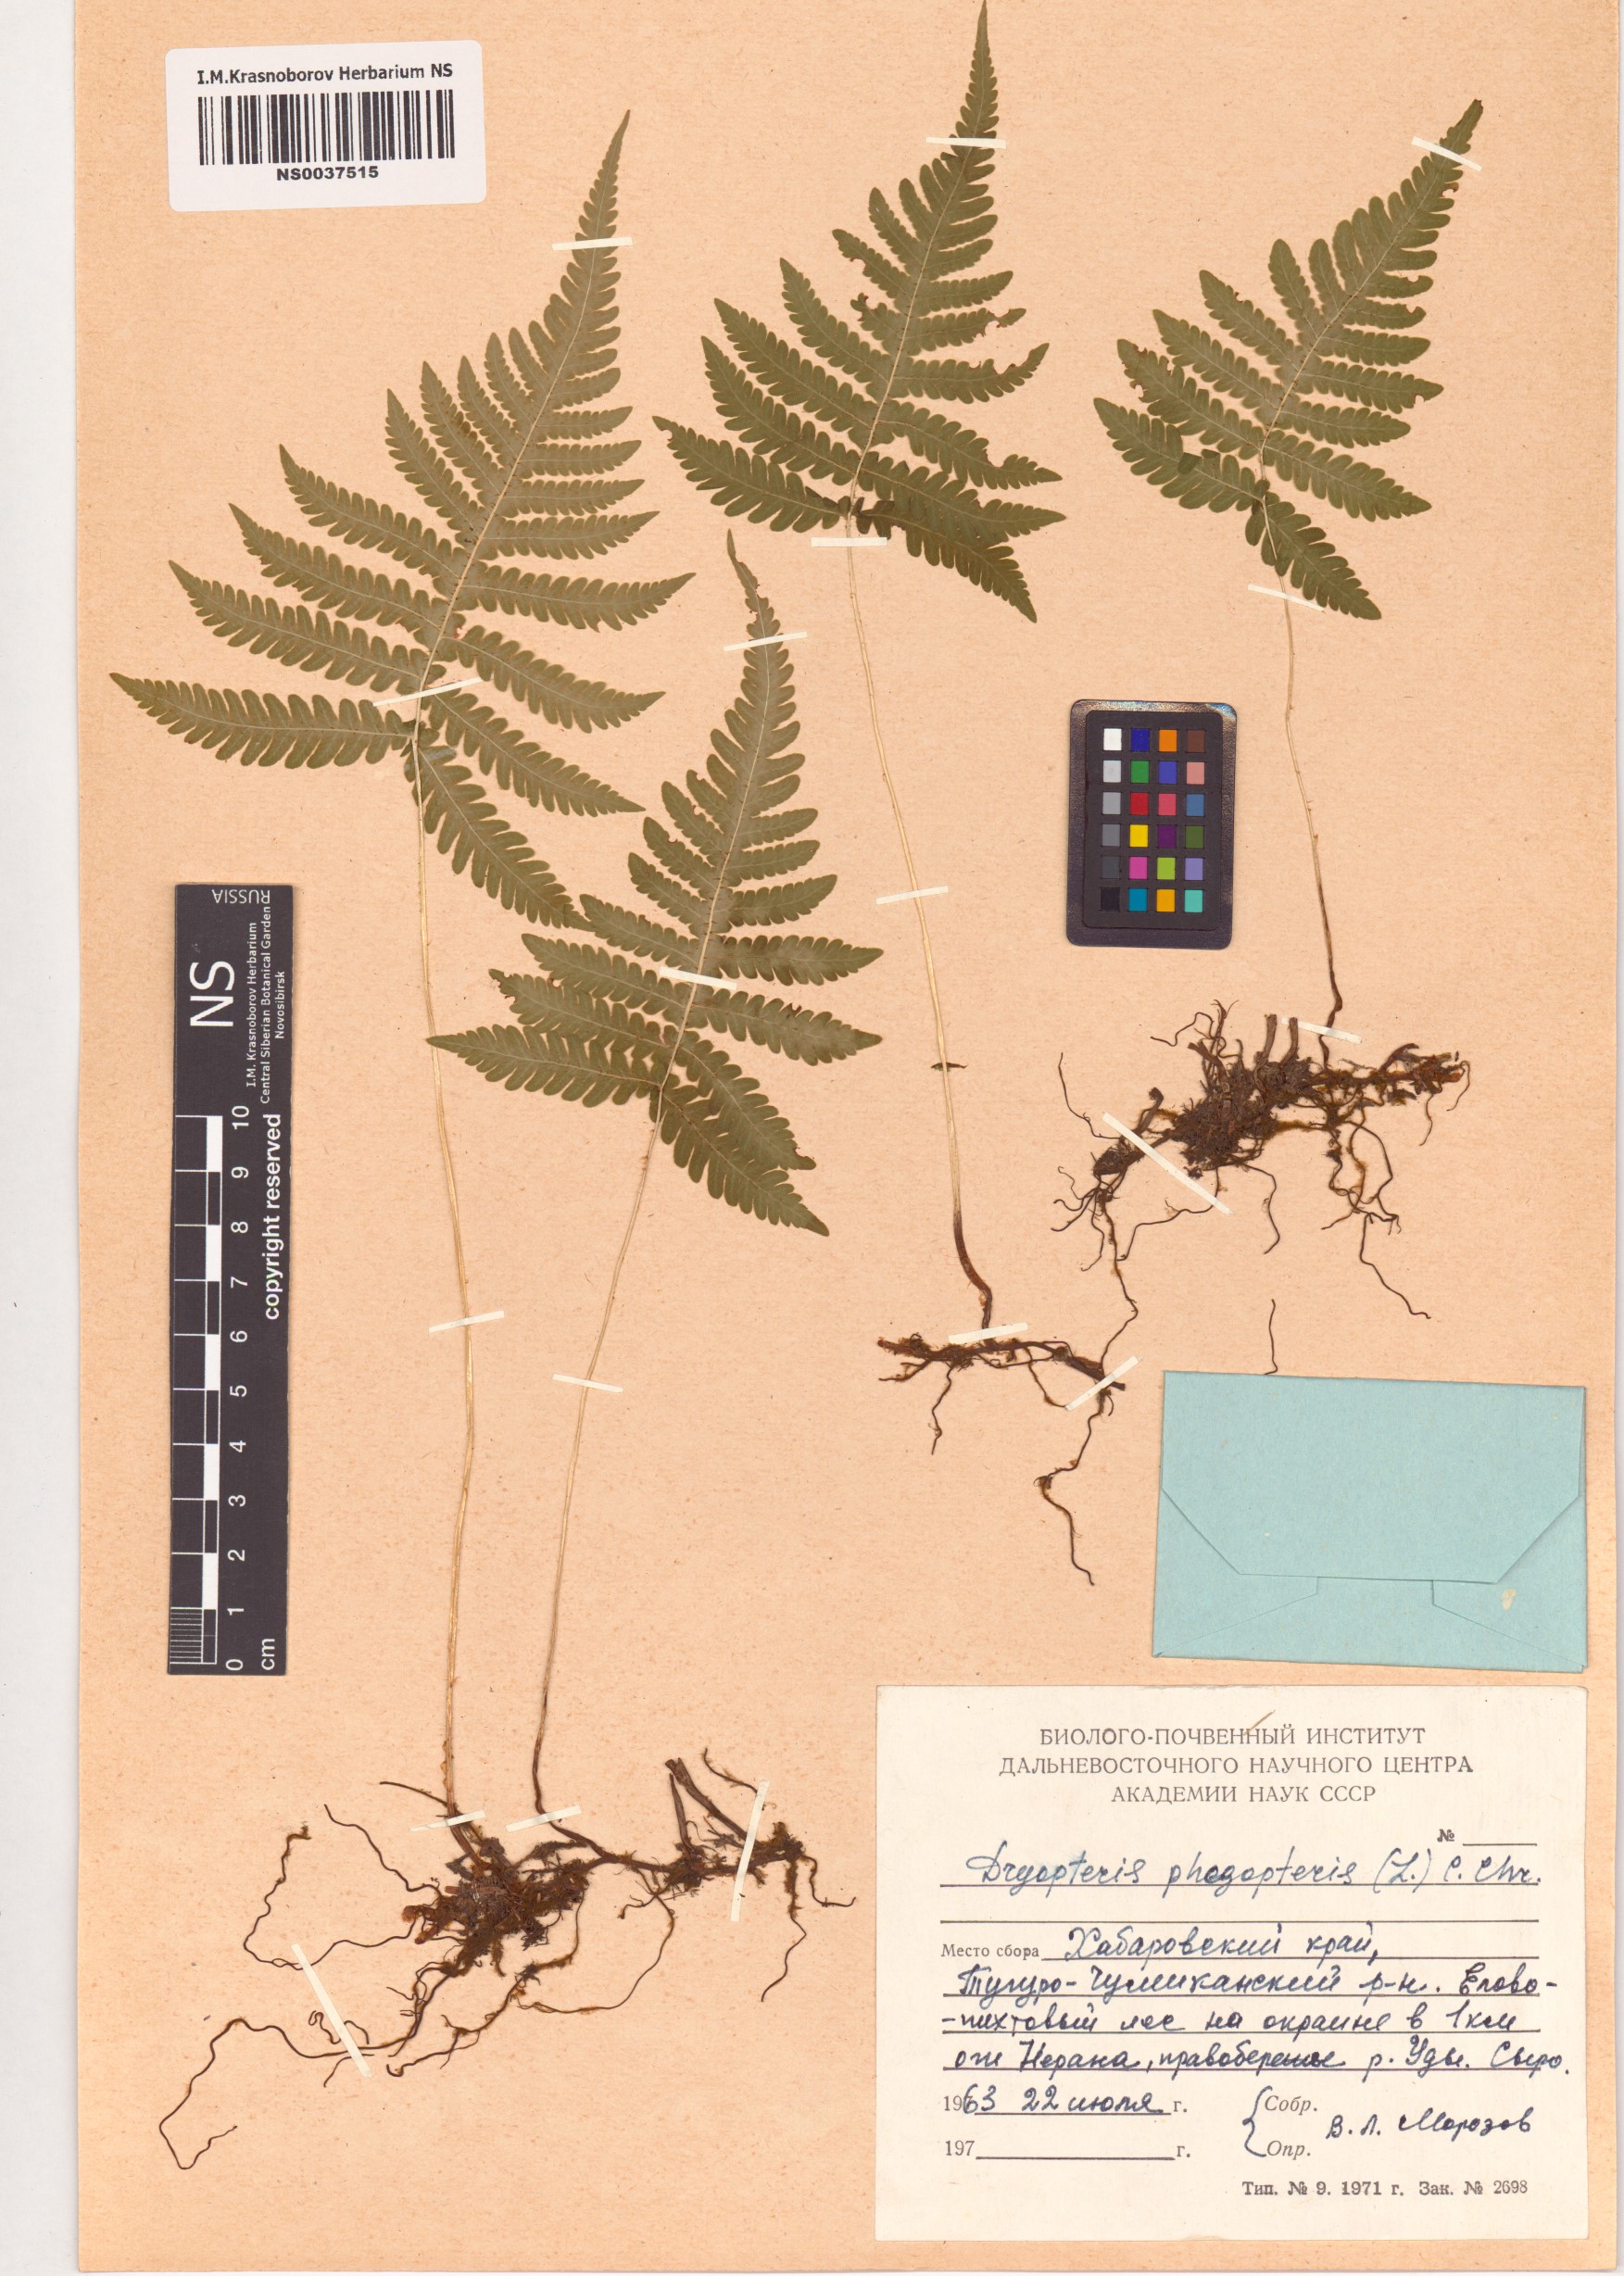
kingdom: Plantae
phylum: Tracheophyta
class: Polypodiopsida
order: Polypodiales
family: Thelypteridaceae
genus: Phegopteris
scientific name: Phegopteris connectilis
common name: Beech fern
